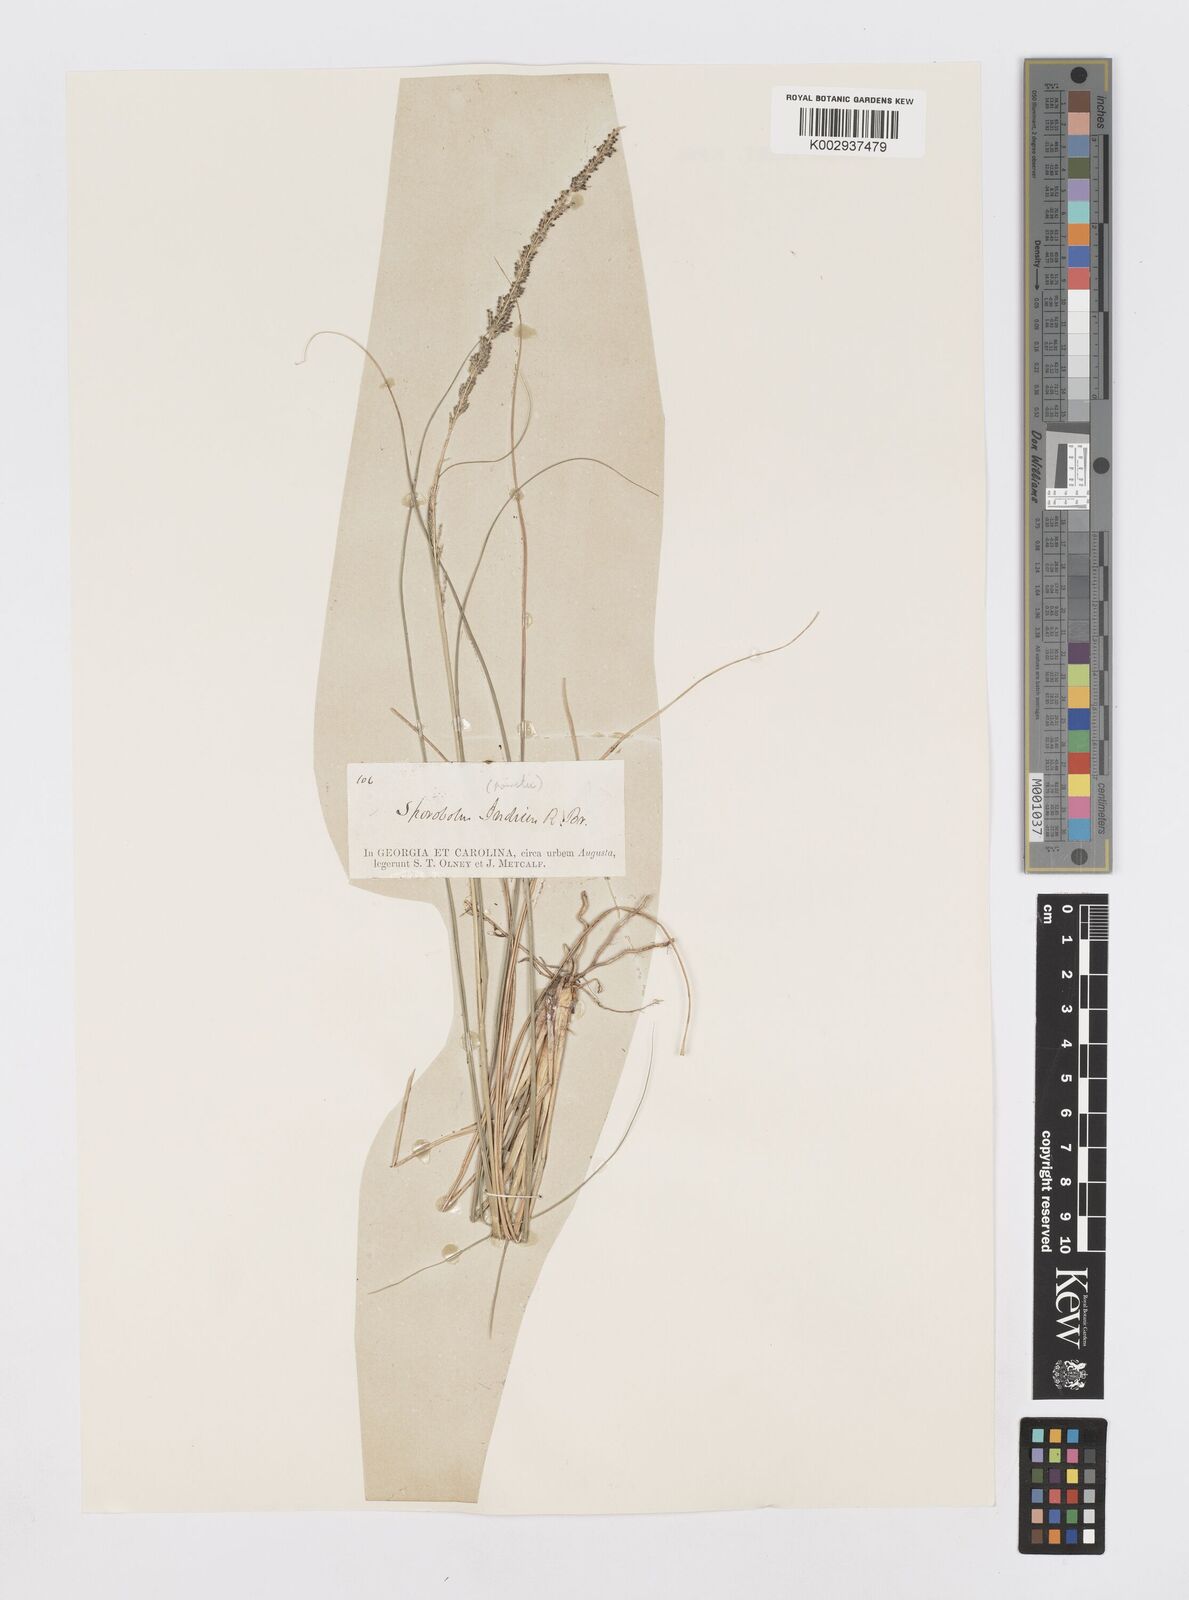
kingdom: Plantae
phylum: Tracheophyta
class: Liliopsida
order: Poales
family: Poaceae
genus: Sporobolus
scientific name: Sporobolus junceus
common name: Lizard grass
